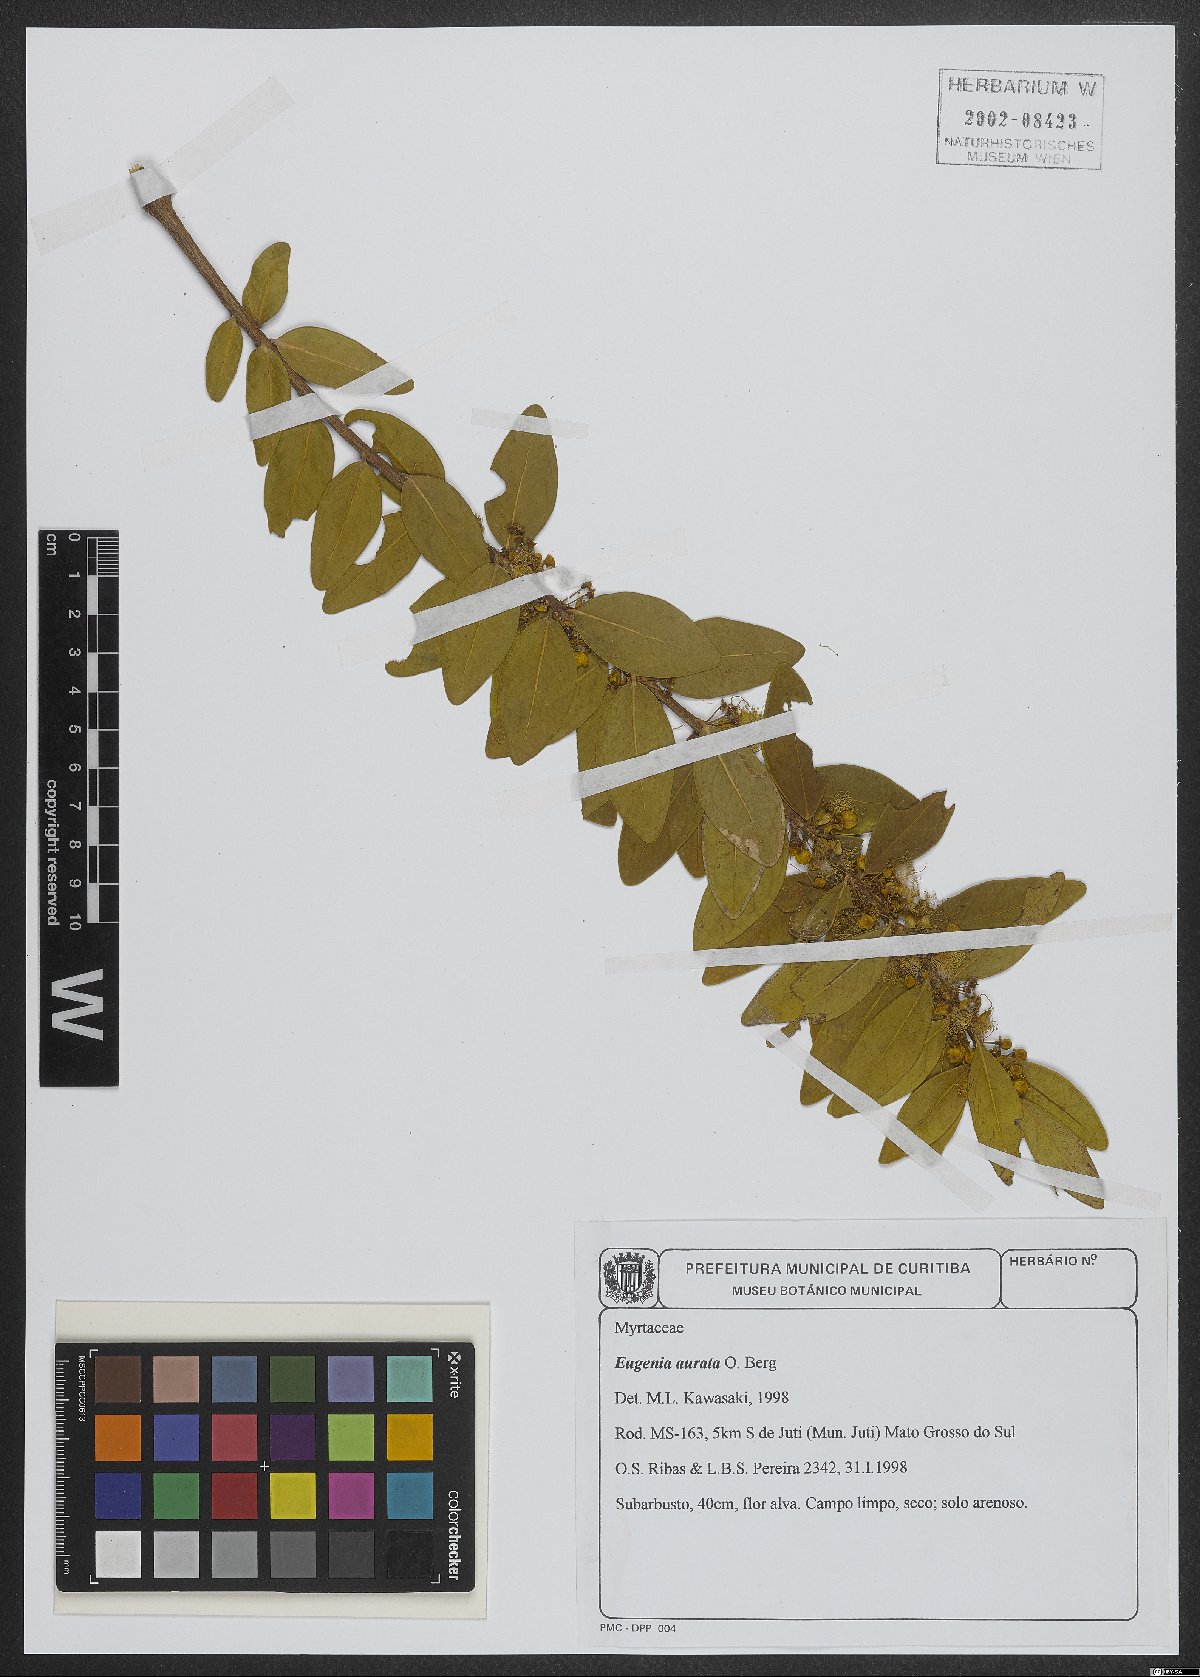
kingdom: Plantae
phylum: Tracheophyta
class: Magnoliopsida
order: Myrtales
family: Myrtaceae
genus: Eugenia
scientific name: Eugenia aurata
